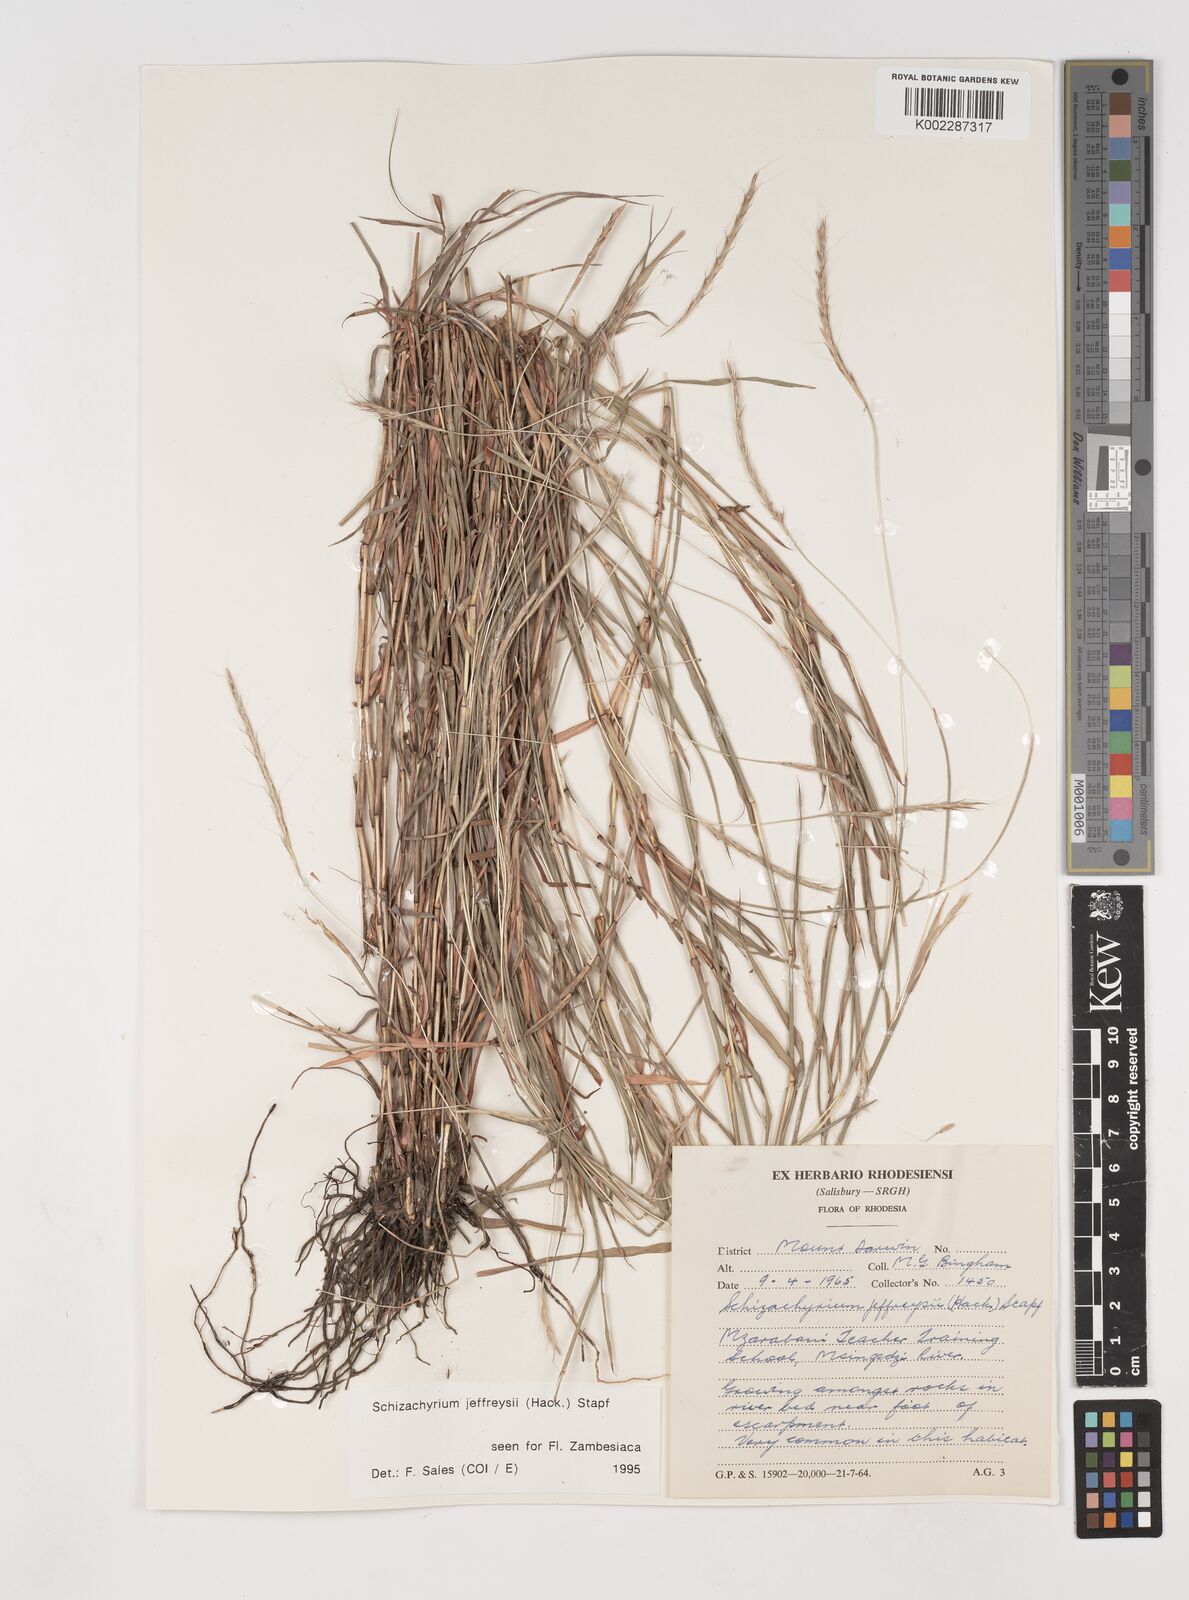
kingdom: Plantae
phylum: Tracheophyta
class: Liliopsida
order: Poales
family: Poaceae
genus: Schizachyrium
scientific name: Schizachyrium jeffreysii
